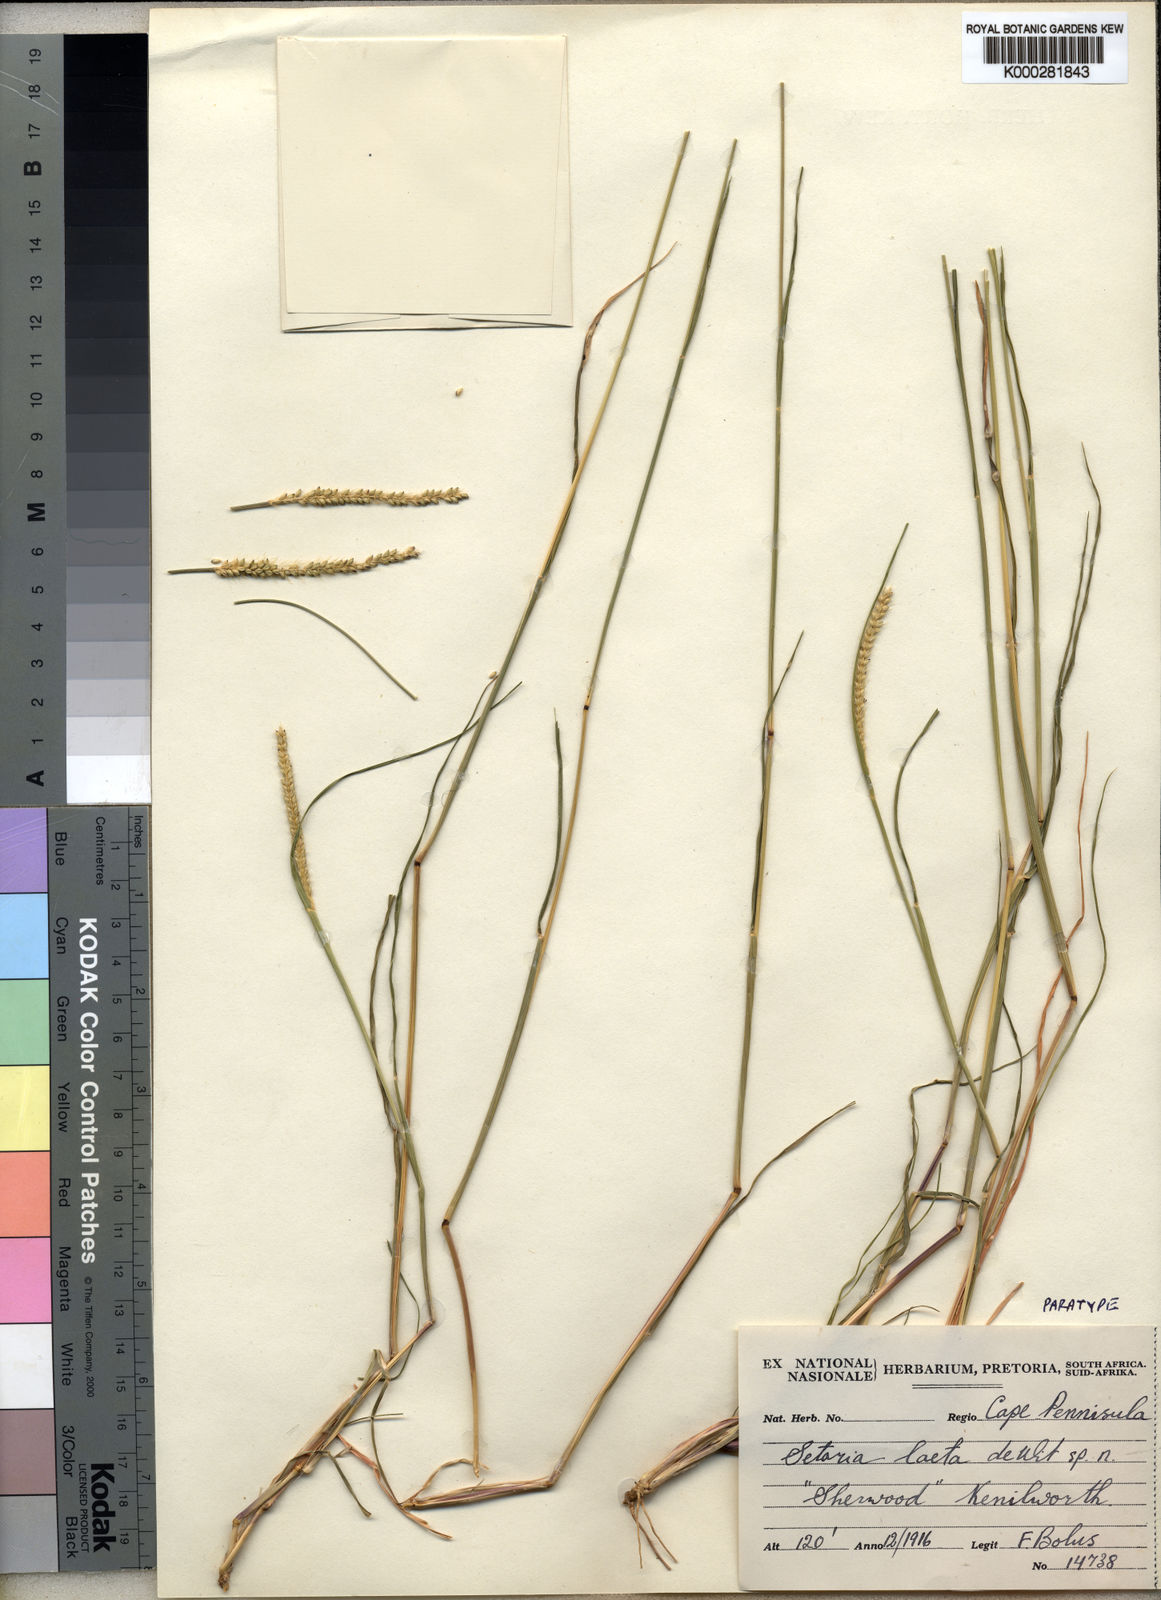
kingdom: Plantae
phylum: Tracheophyta
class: Liliopsida
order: Poales
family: Poaceae
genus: Setaria
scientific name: Setaria
